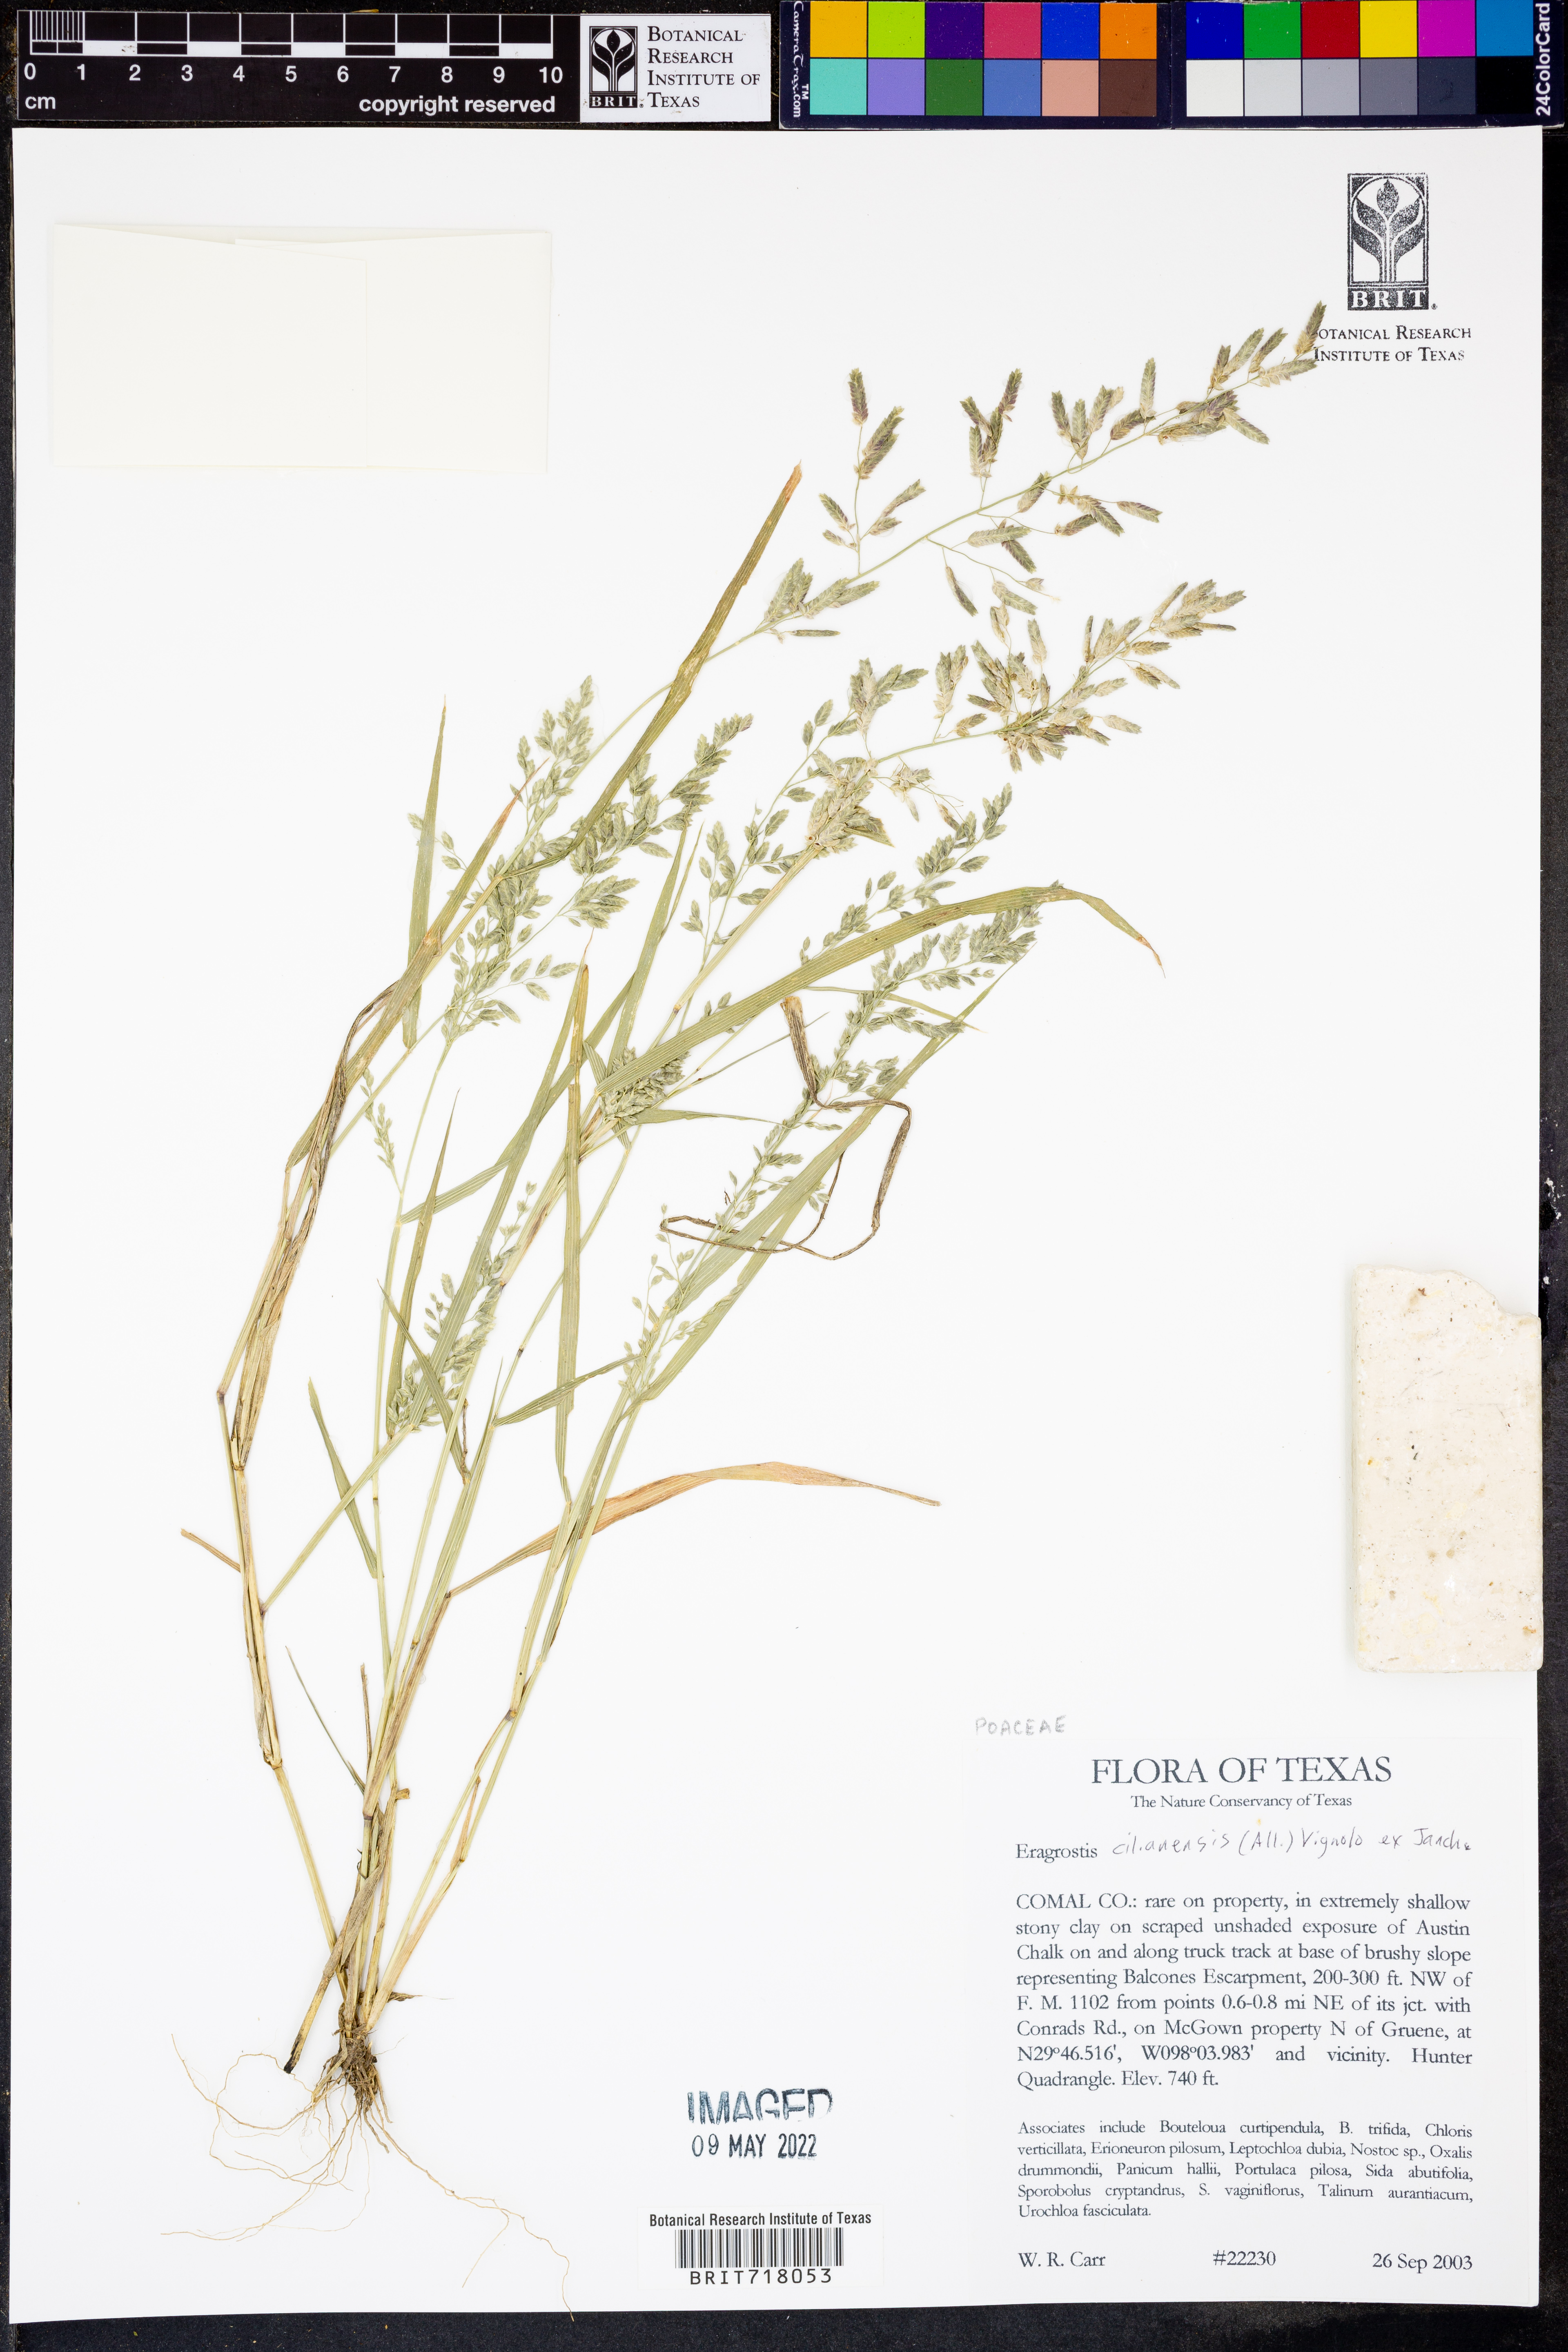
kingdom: Plantae
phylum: Tracheophyta
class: Liliopsida
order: Poales
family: Poaceae
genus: Eragrostis
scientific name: Eragrostis cilianensis
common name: Stinkgrass
